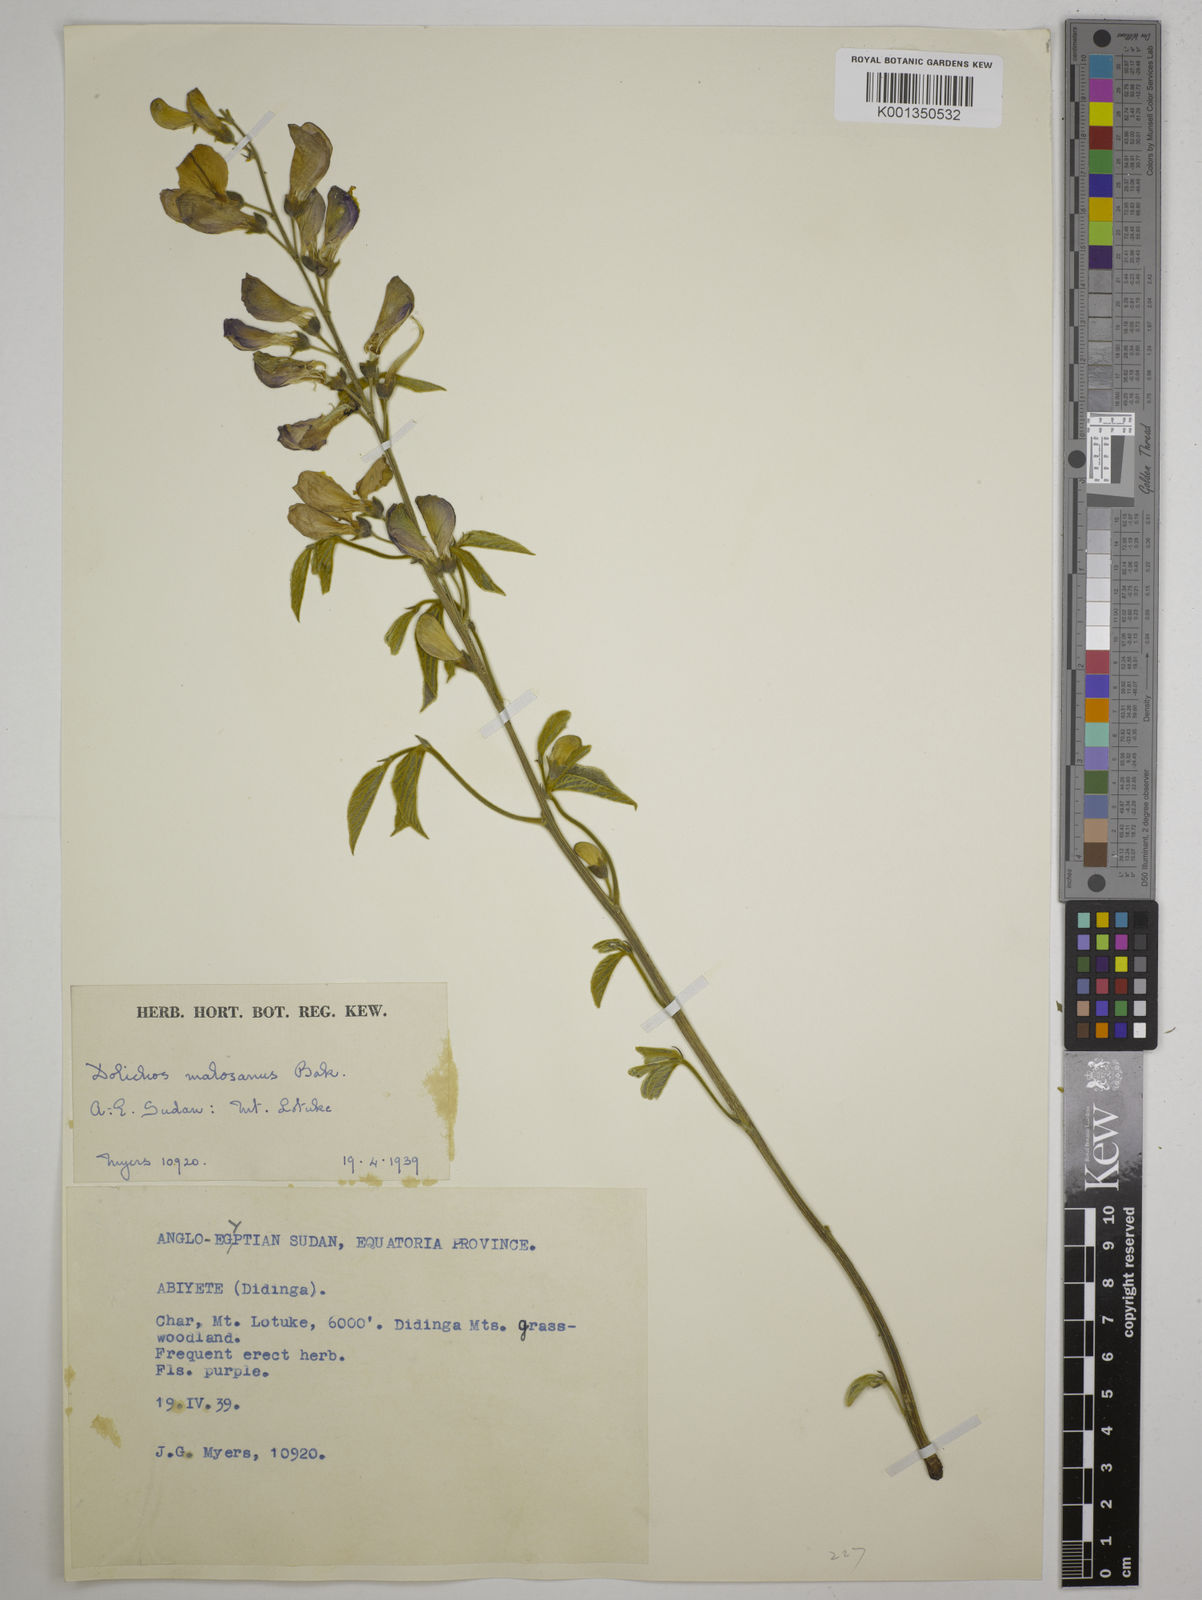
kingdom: Plantae
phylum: Tracheophyta
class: Magnoliopsida
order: Fabales
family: Fabaceae
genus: Dolichos
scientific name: Dolichos kilimandscharicus
